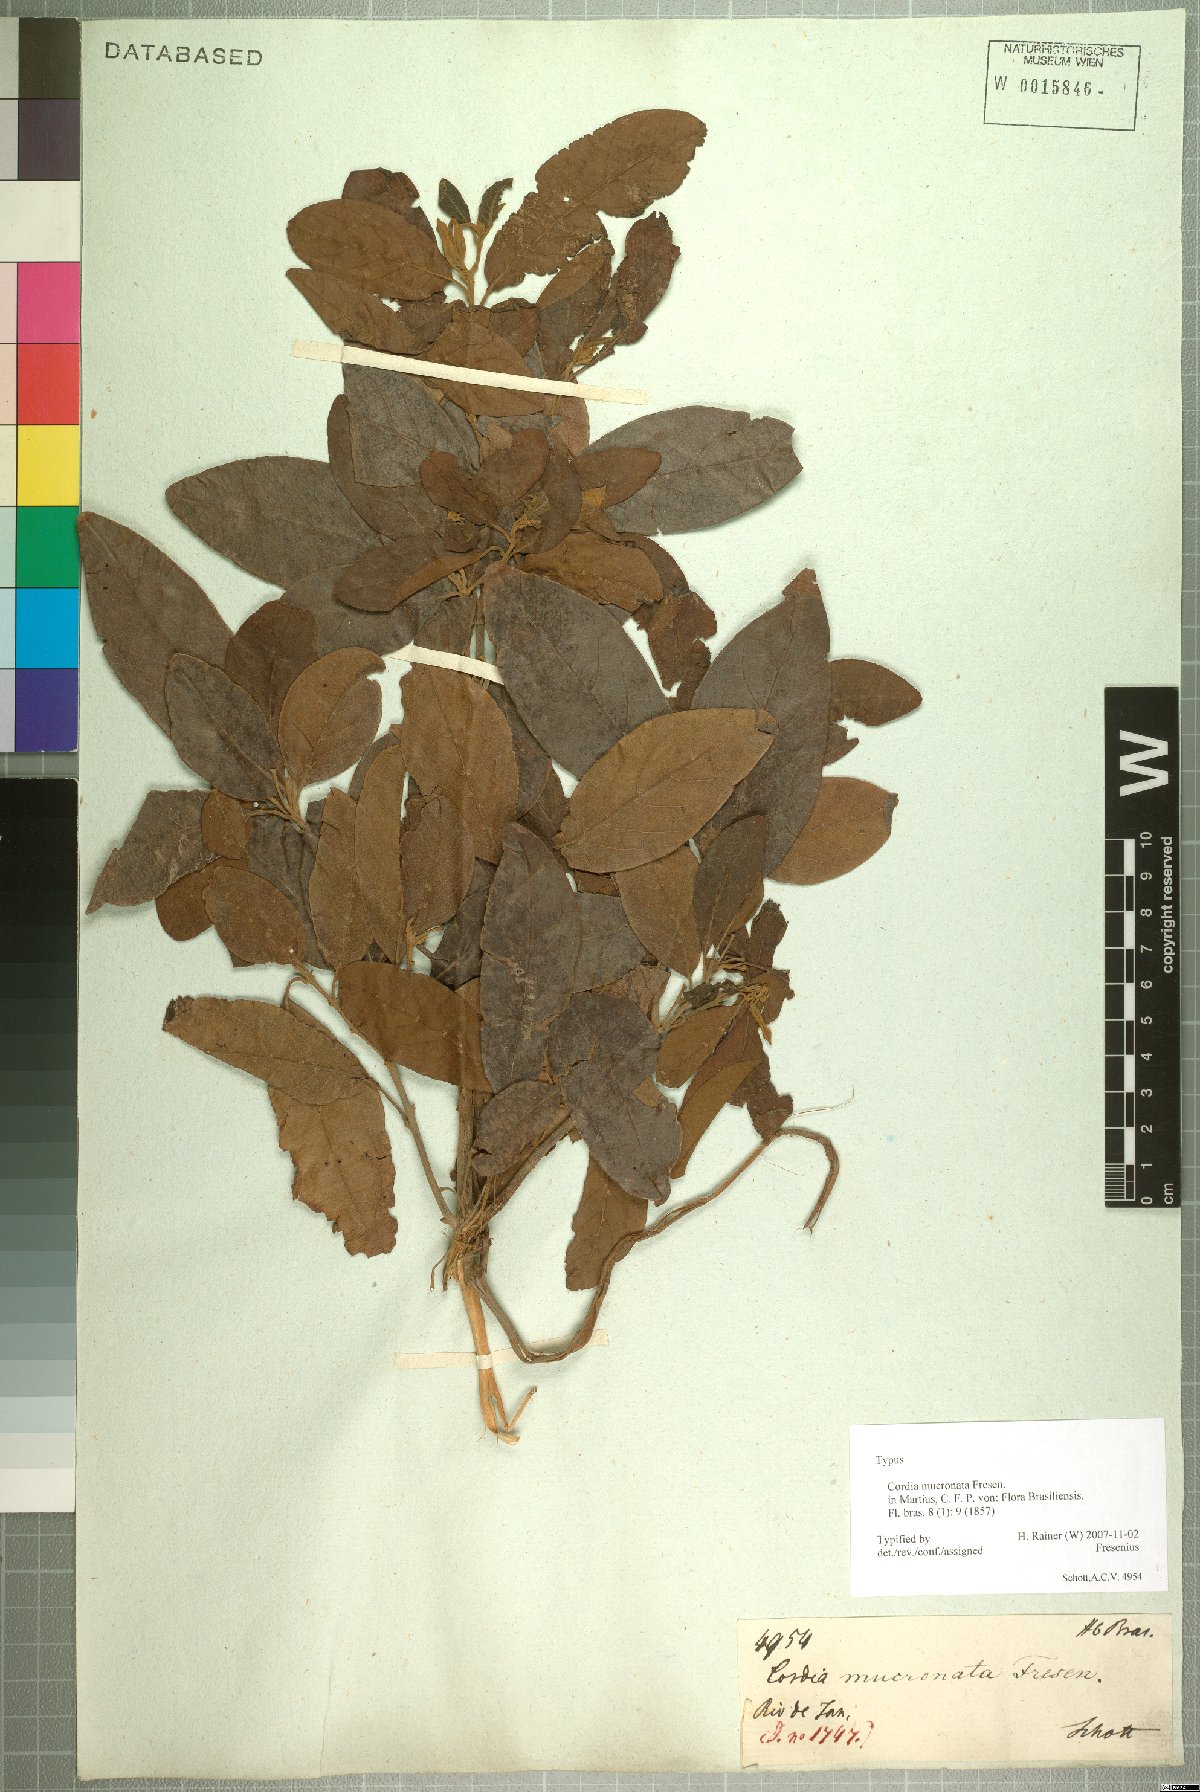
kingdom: Plantae
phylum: Tracheophyta
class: Magnoliopsida
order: Boraginales
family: Cordiaceae
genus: Cordia
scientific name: Cordia aberrans
